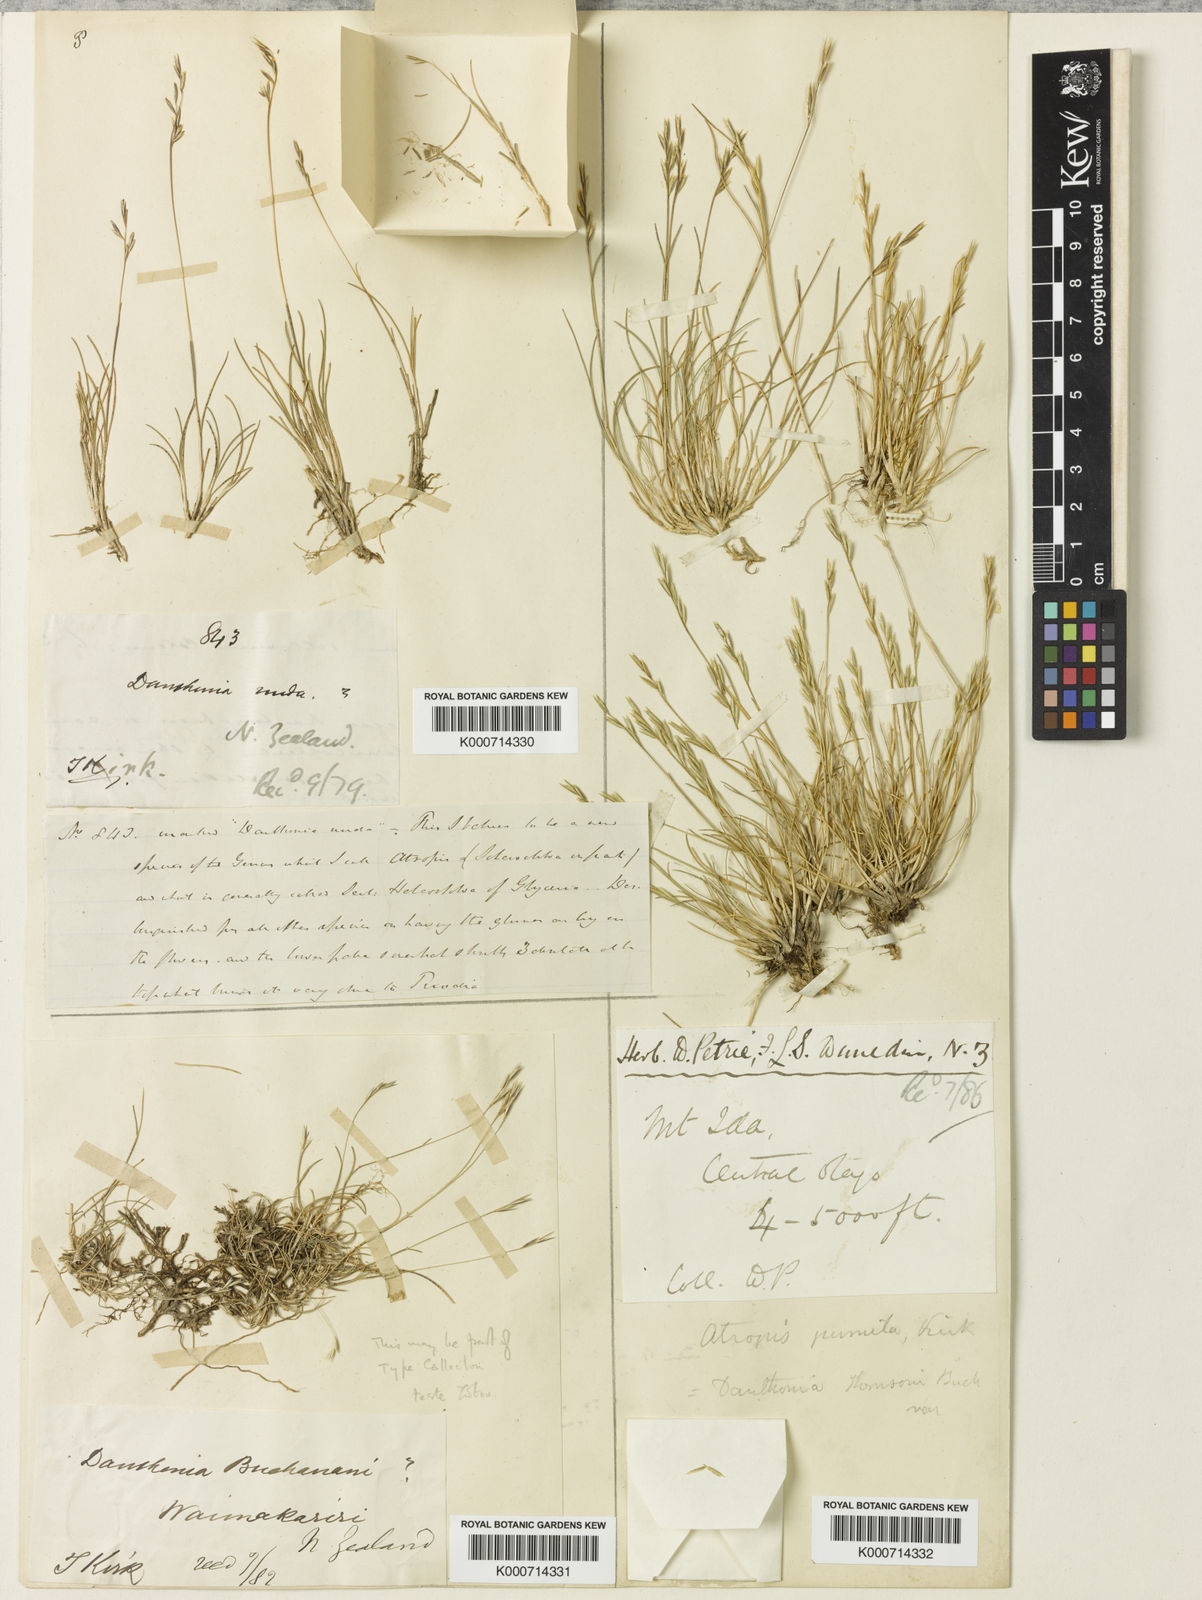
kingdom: Plantae
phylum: Tracheophyta
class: Liliopsida
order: Poales
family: Poaceae
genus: Rytidosperma
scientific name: Rytidosperma pumilum
